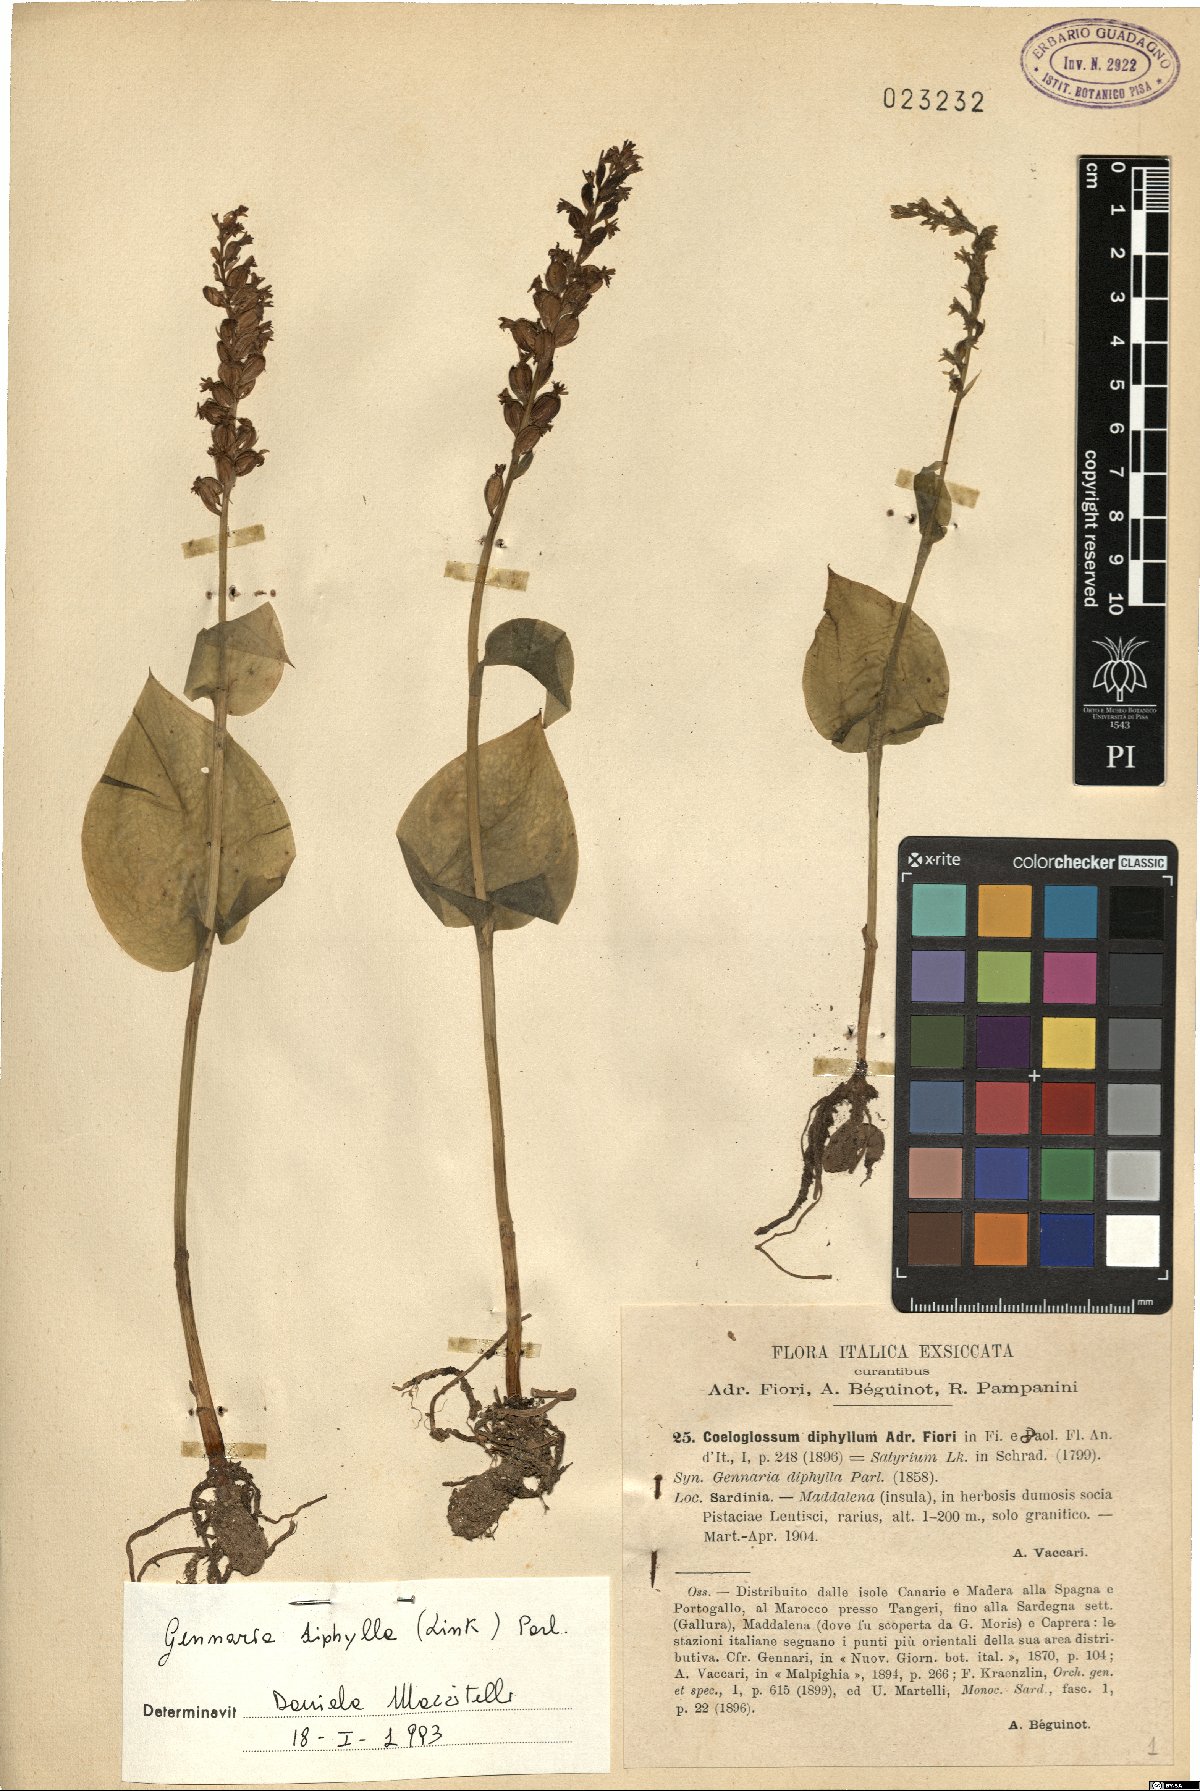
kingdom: Plantae
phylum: Tracheophyta
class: Liliopsida
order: Asparagales
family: Orchidaceae
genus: Gennaria
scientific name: Gennaria diphylla
